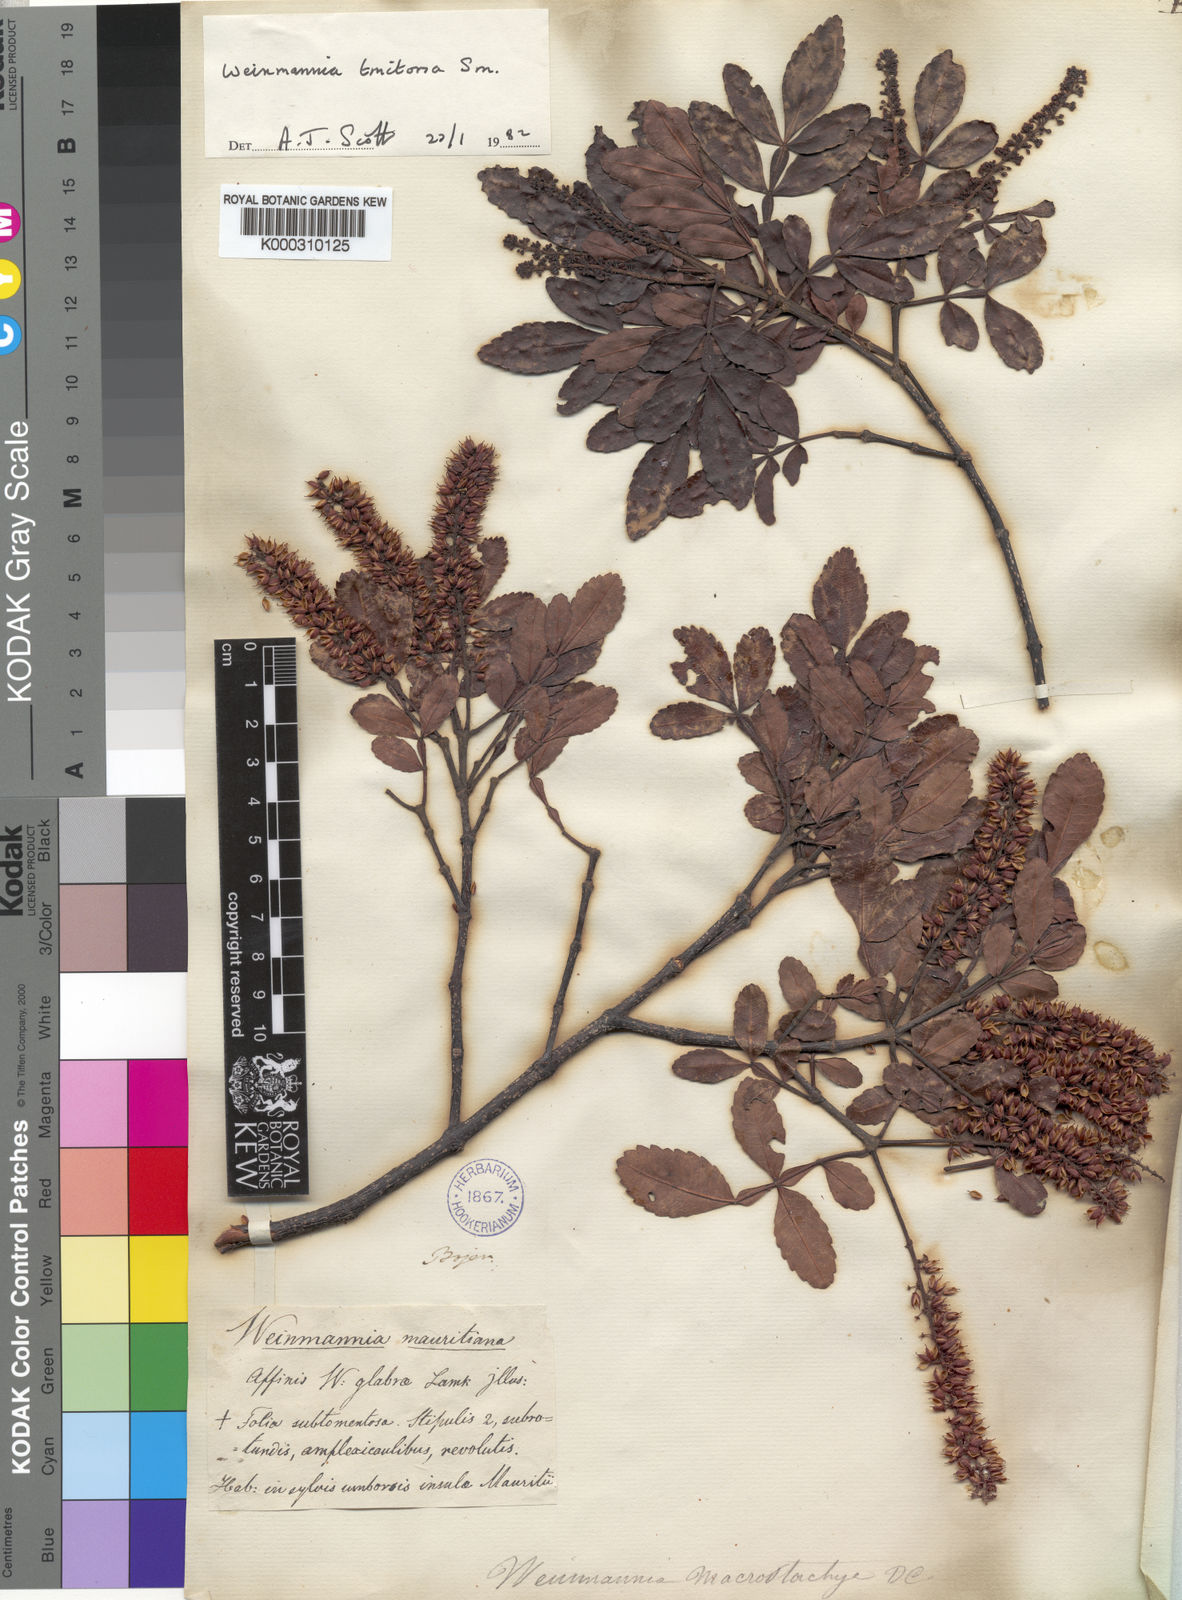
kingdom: Plantae
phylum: Tracheophyta
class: Magnoliopsida
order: Oxalidales
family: Cunoniaceae
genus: Weinmannia
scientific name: Weinmannia tinctoria
